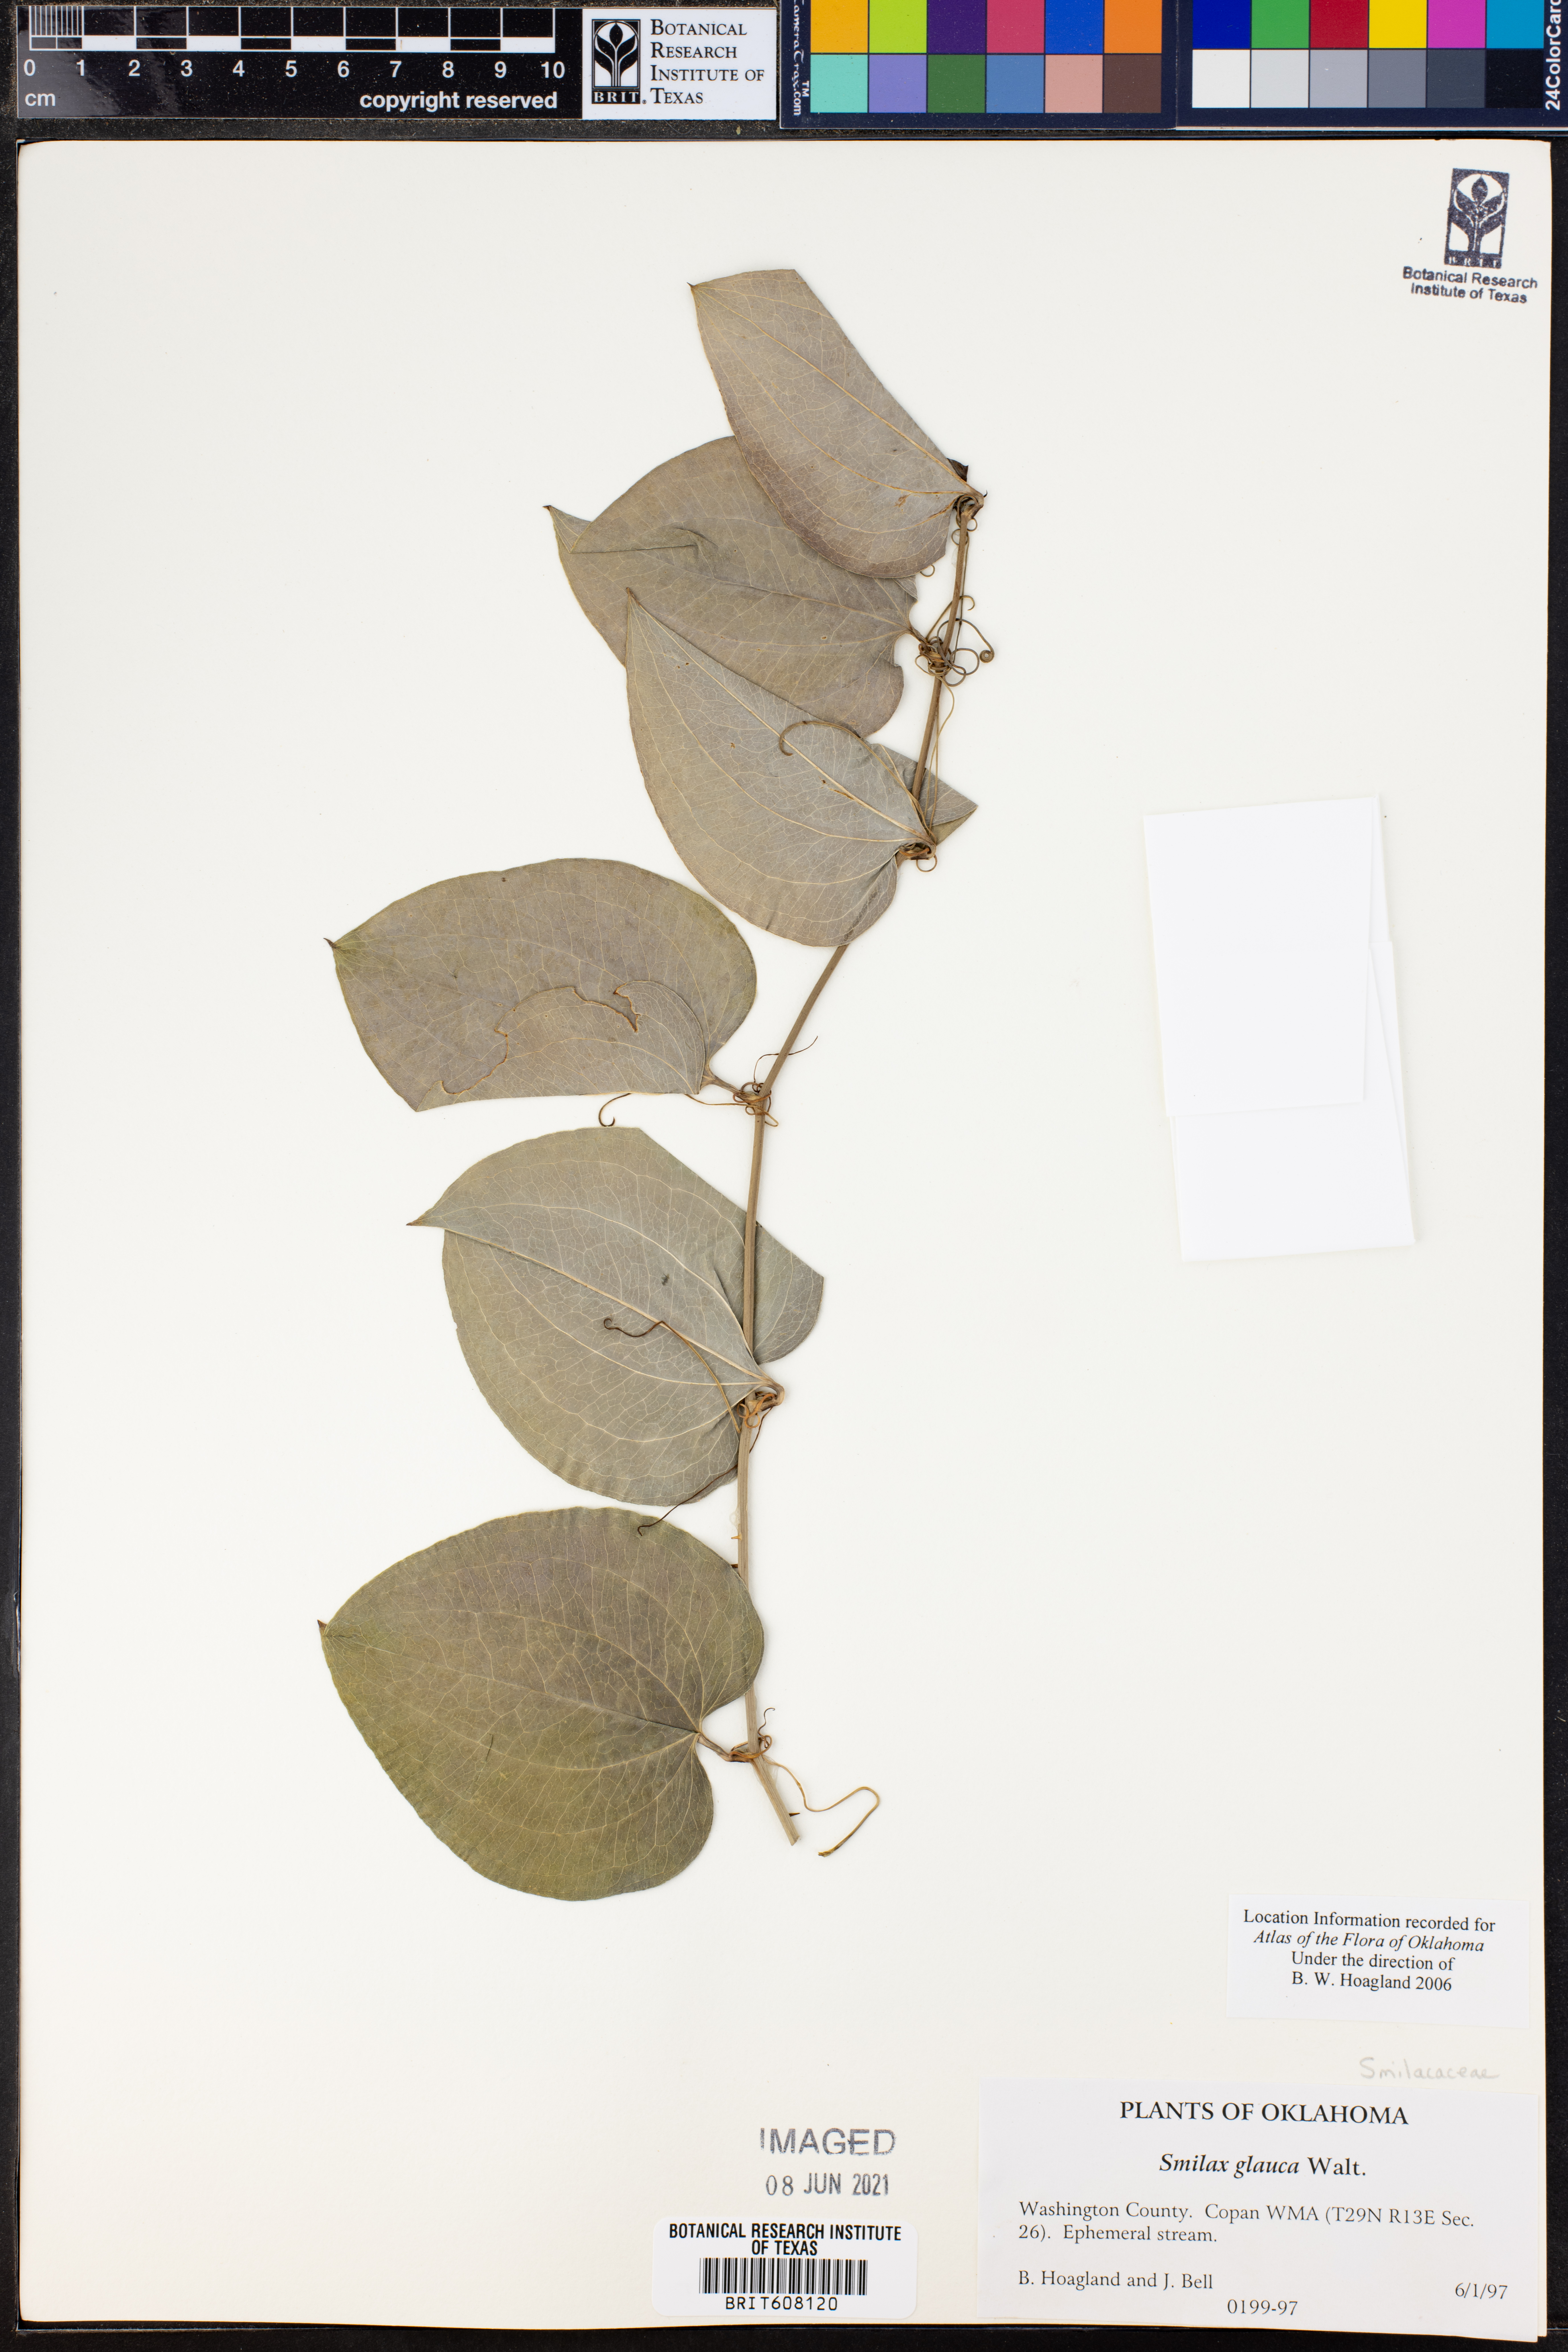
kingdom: Plantae
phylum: Tracheophyta
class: Liliopsida
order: Liliales
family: Smilacaceae
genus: Smilax
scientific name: Smilax glauca
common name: Cat greenbrier
